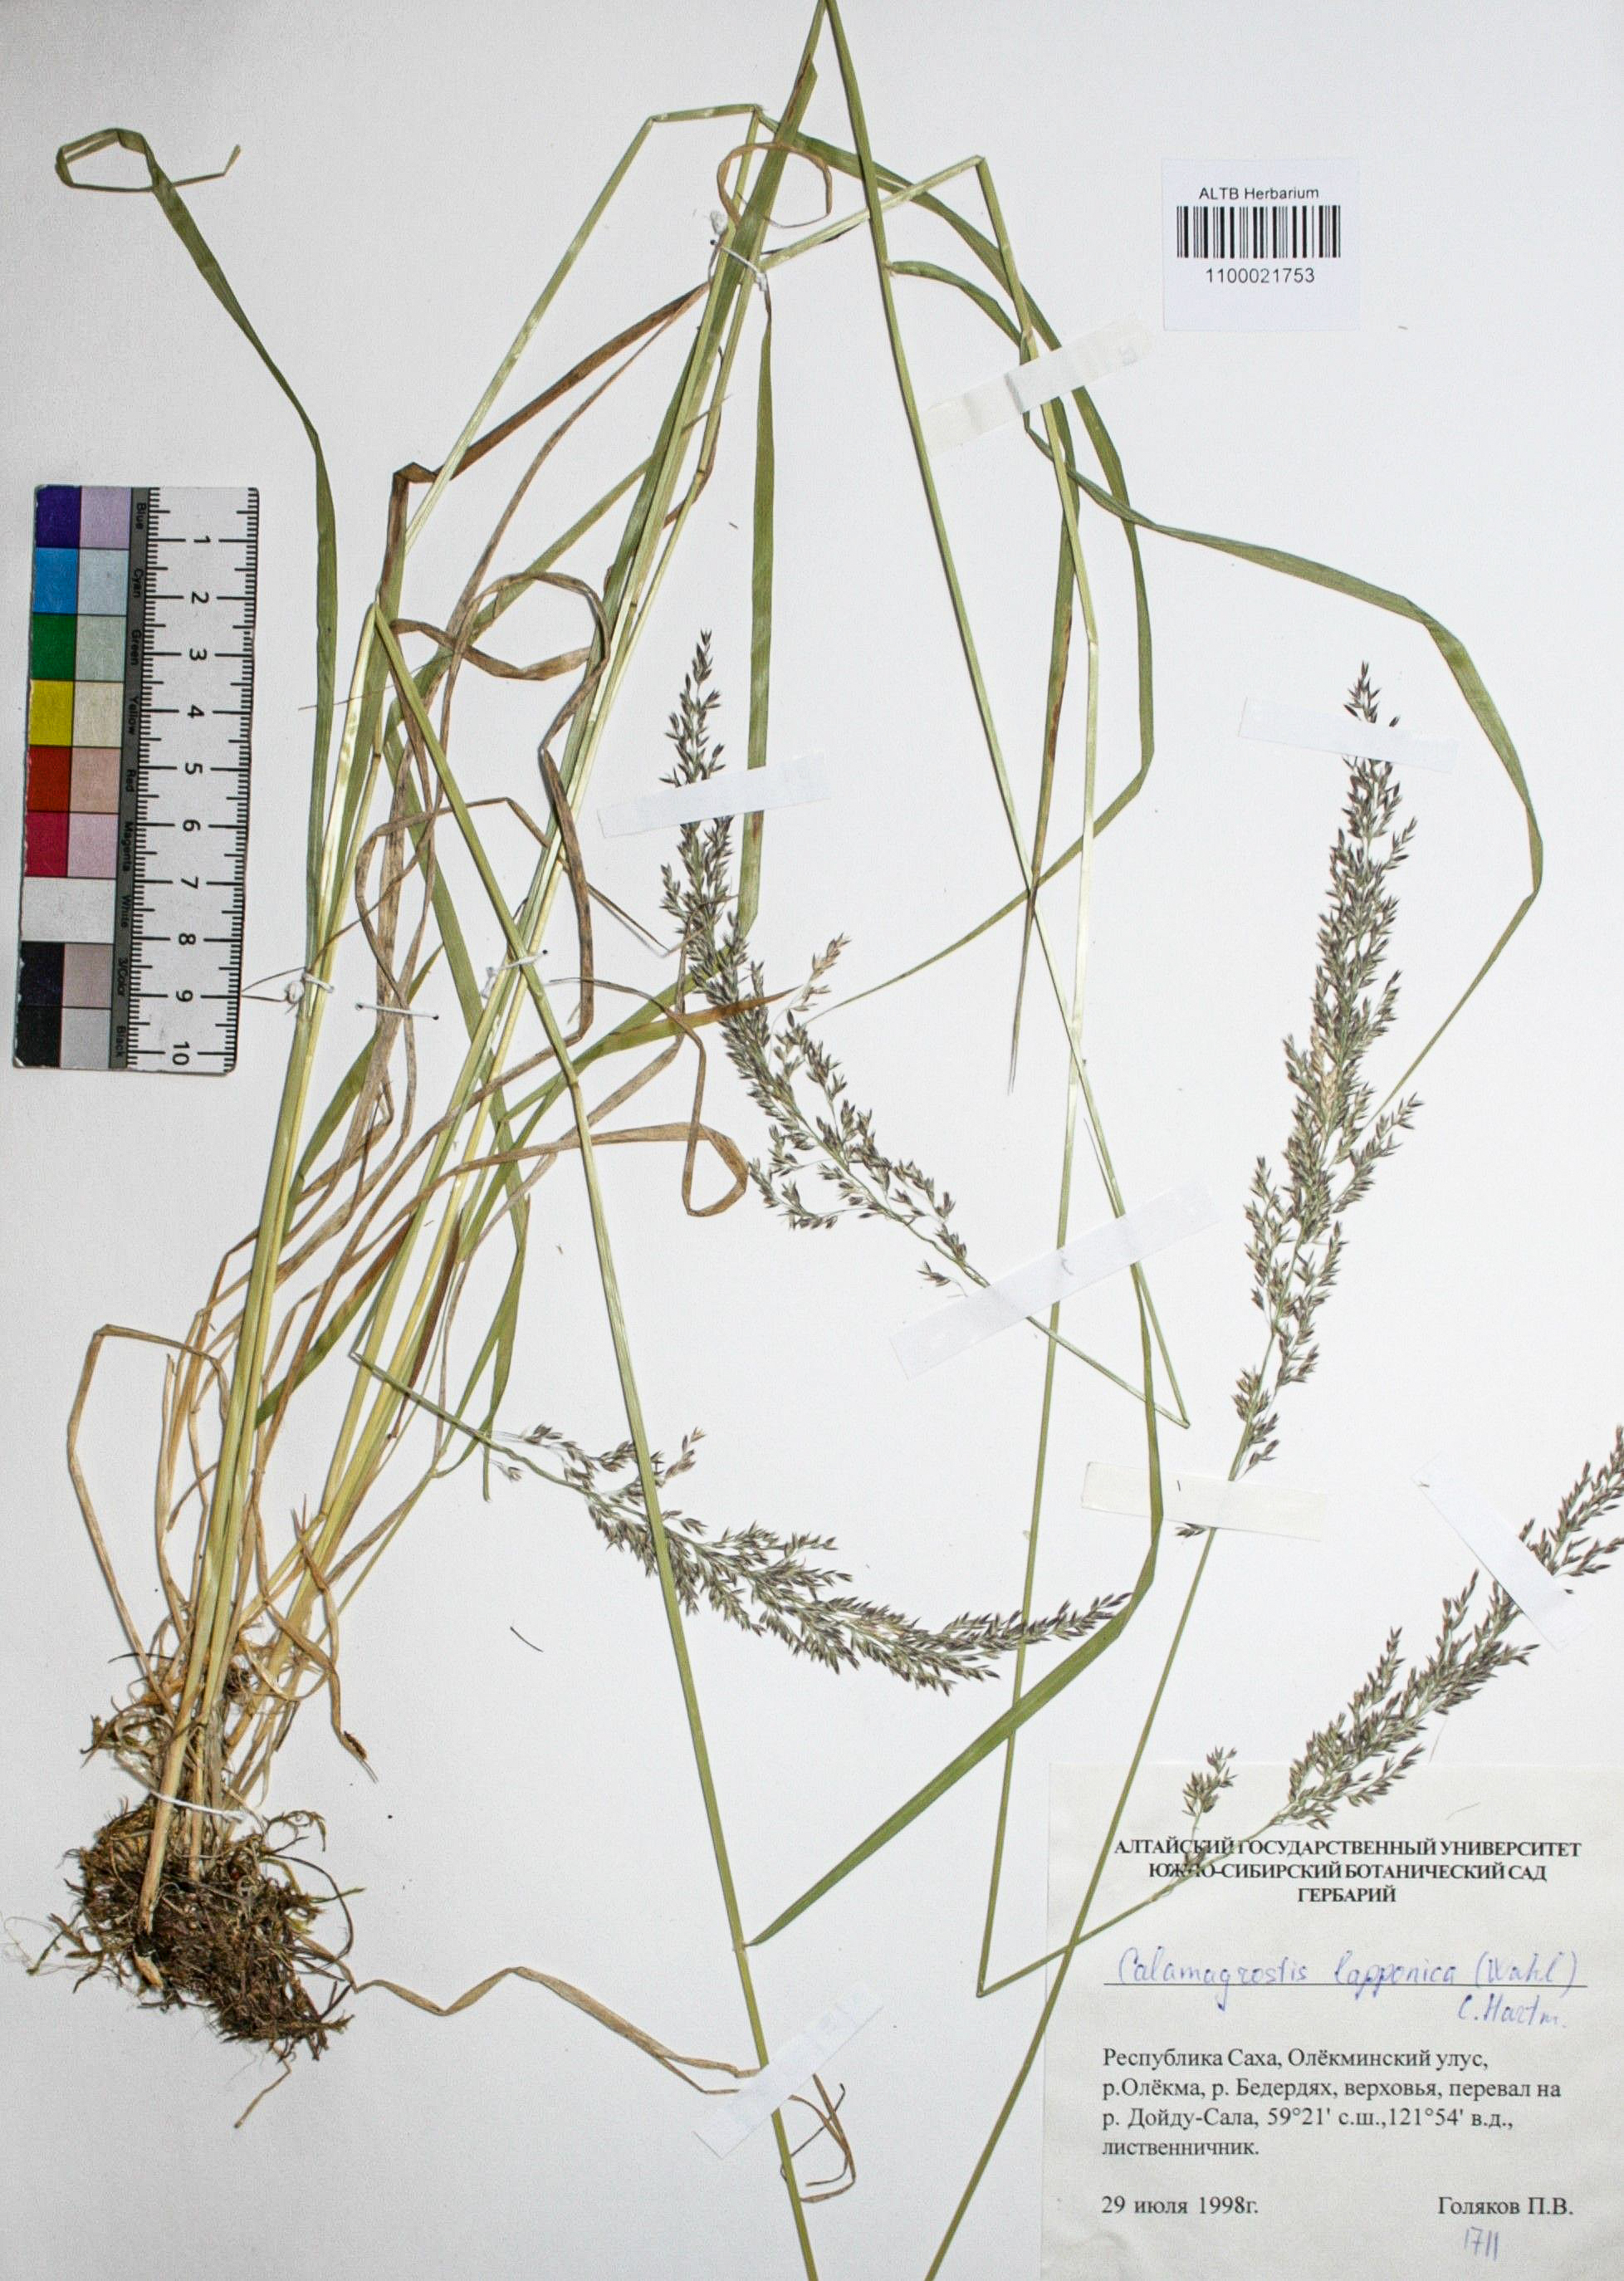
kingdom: Plantae
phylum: Tracheophyta
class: Liliopsida
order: Poales
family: Poaceae
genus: Calamagrostis
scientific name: Calamagrostis lapponica
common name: Lapland reedgrass
